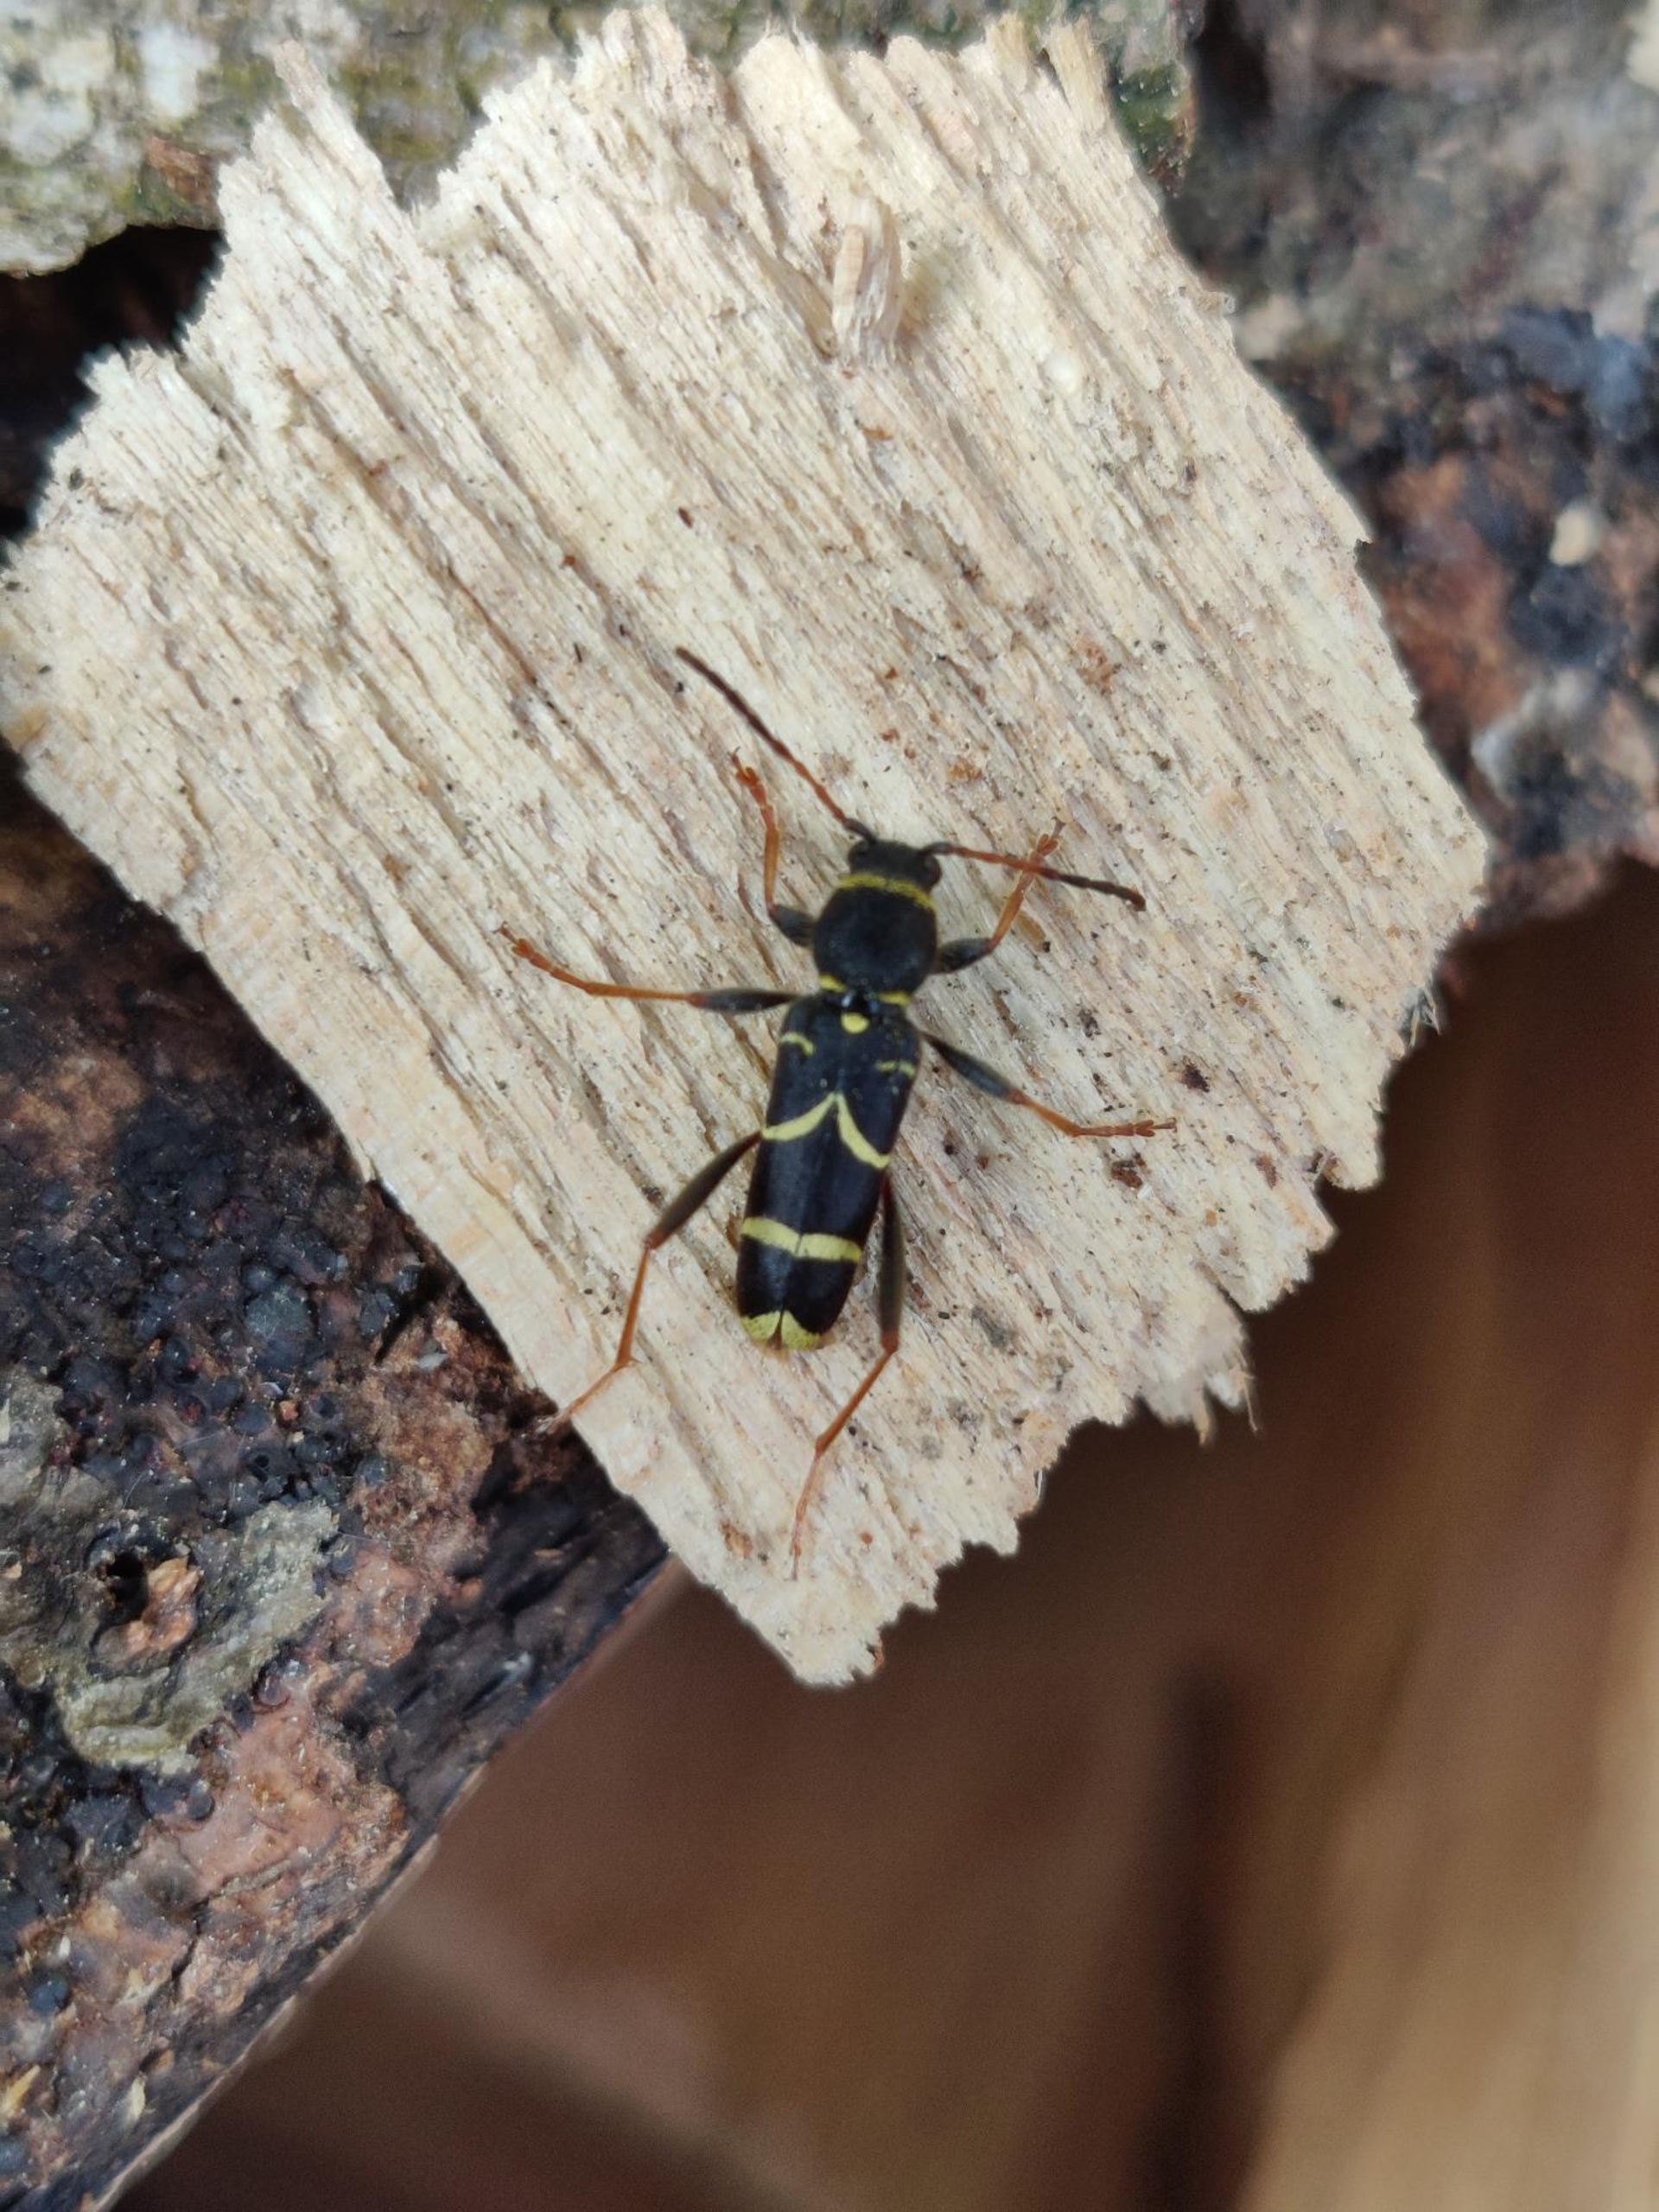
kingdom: Animalia
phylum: Arthropoda
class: Insecta
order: Coleoptera
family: Cerambycidae
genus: Clytus
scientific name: Clytus arietis
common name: Lille hvepsebuk
